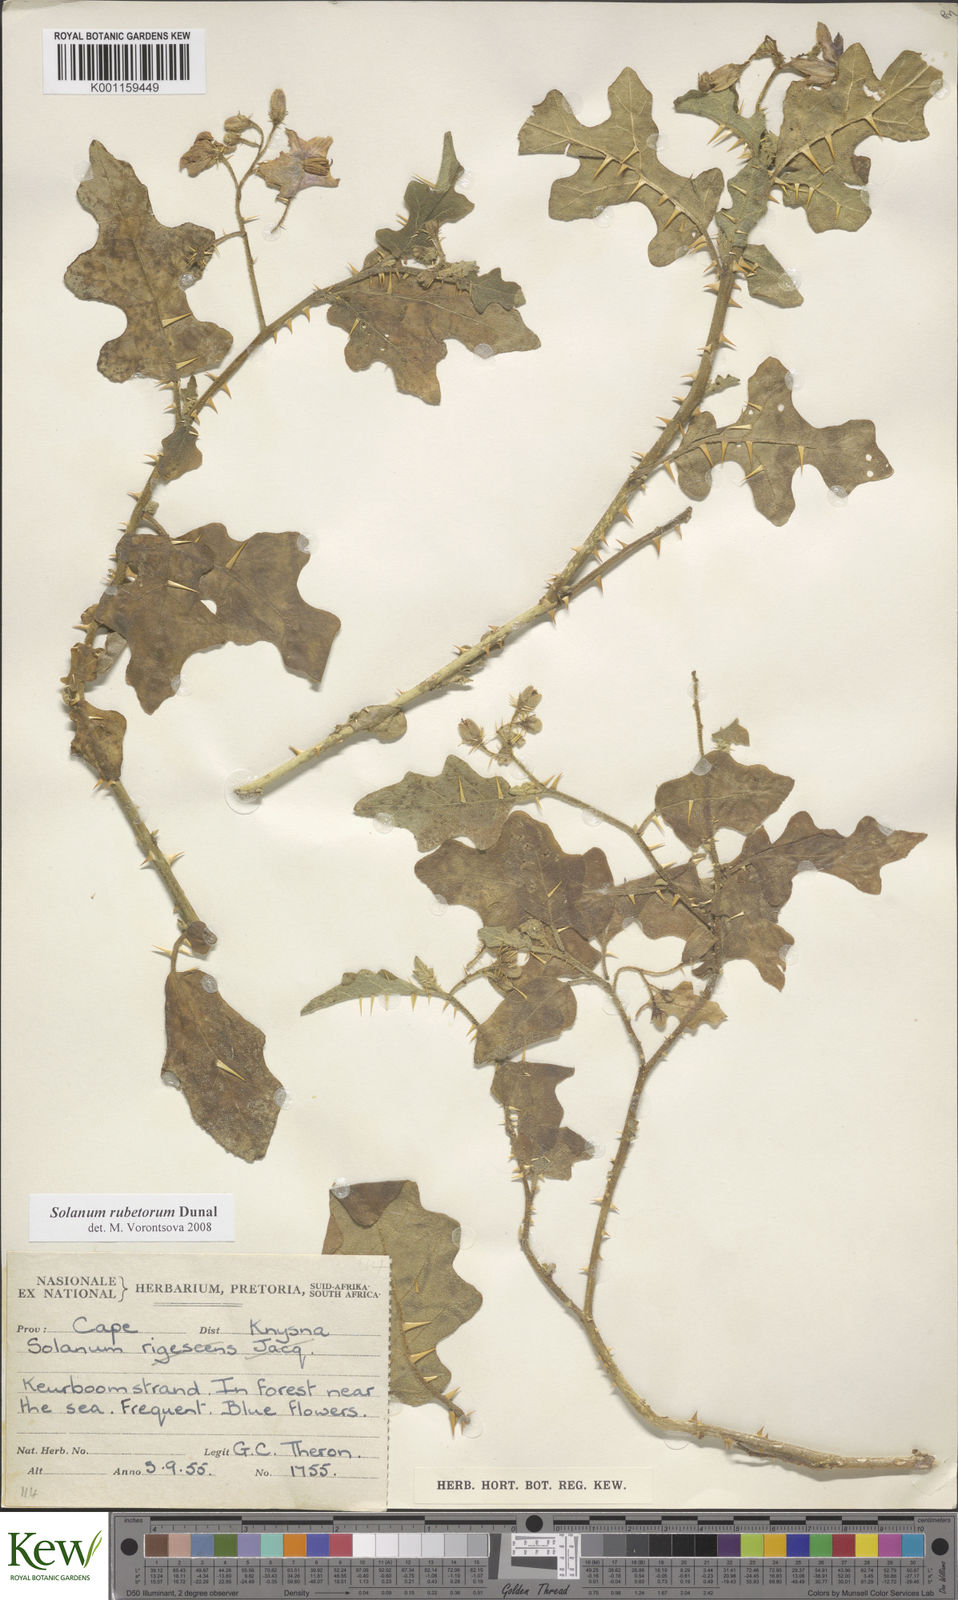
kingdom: Plantae
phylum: Tracheophyta
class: Magnoliopsida
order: Solanales
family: Solanaceae
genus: Solanum
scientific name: Solanum rubetorum
